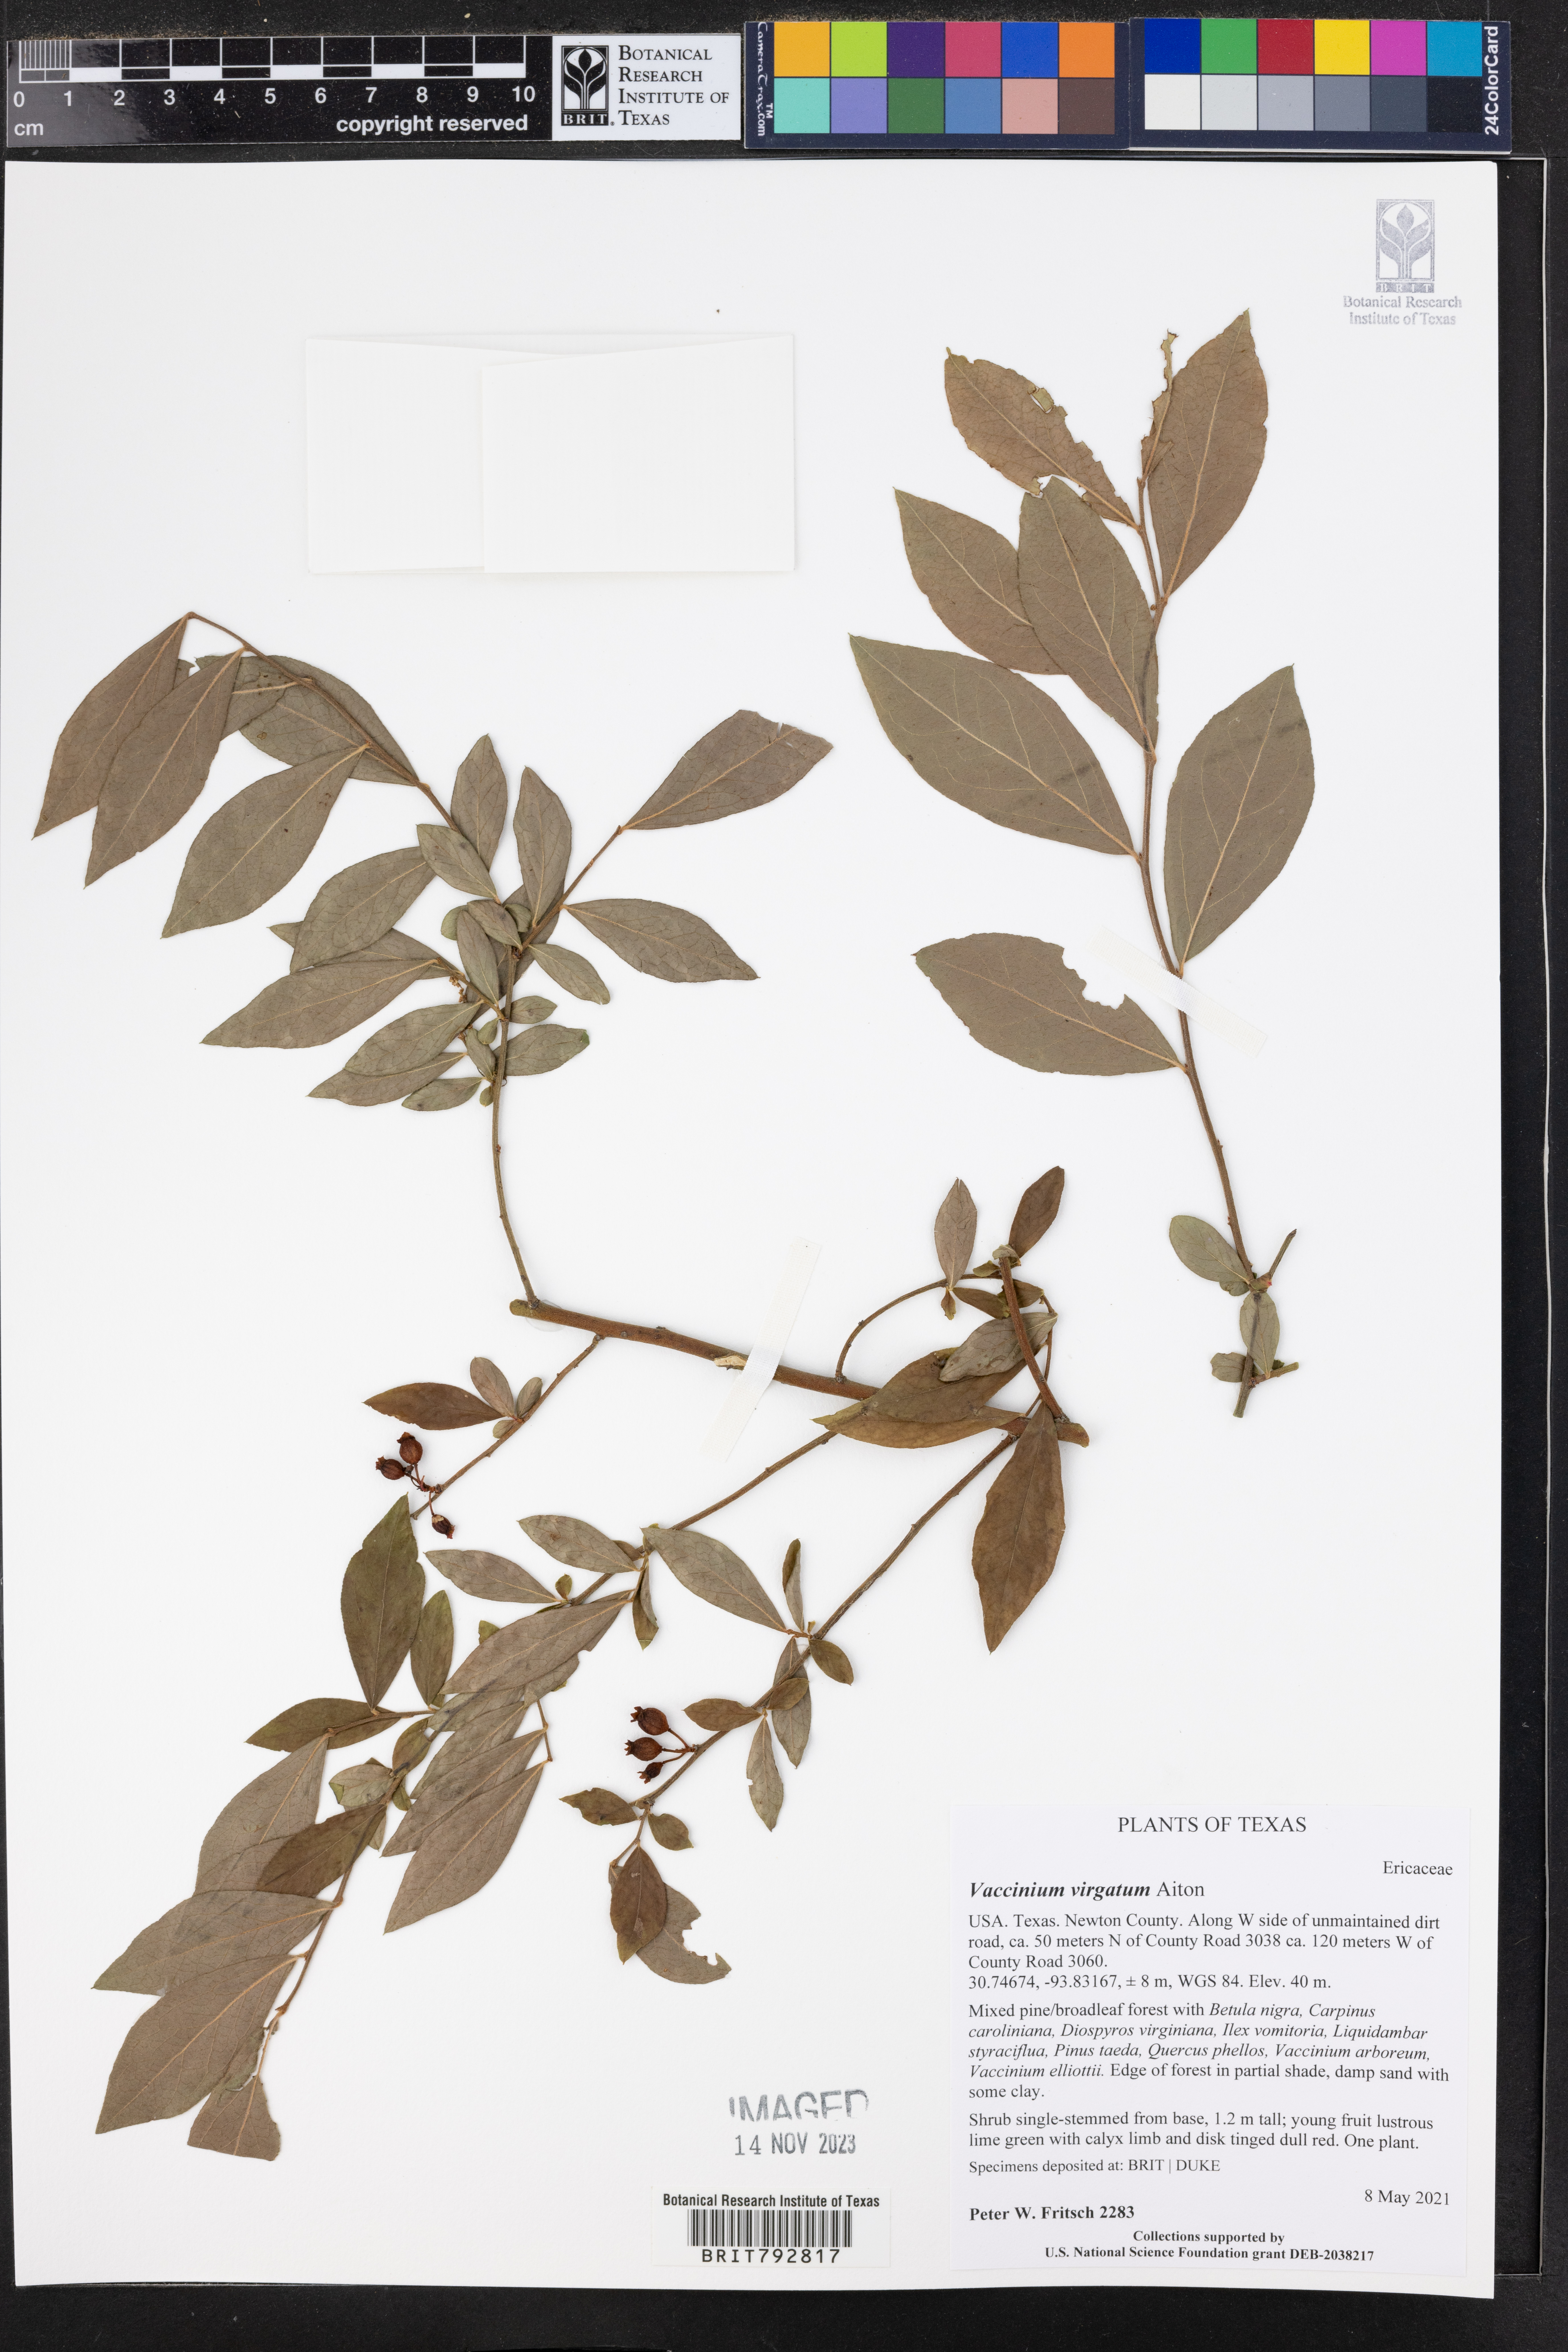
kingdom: Plantae
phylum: Tracheophyta
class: Magnoliopsida
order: Ericales
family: Ericaceae
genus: Vaccinium
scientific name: Vaccinium corymbosum
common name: Blueberry
